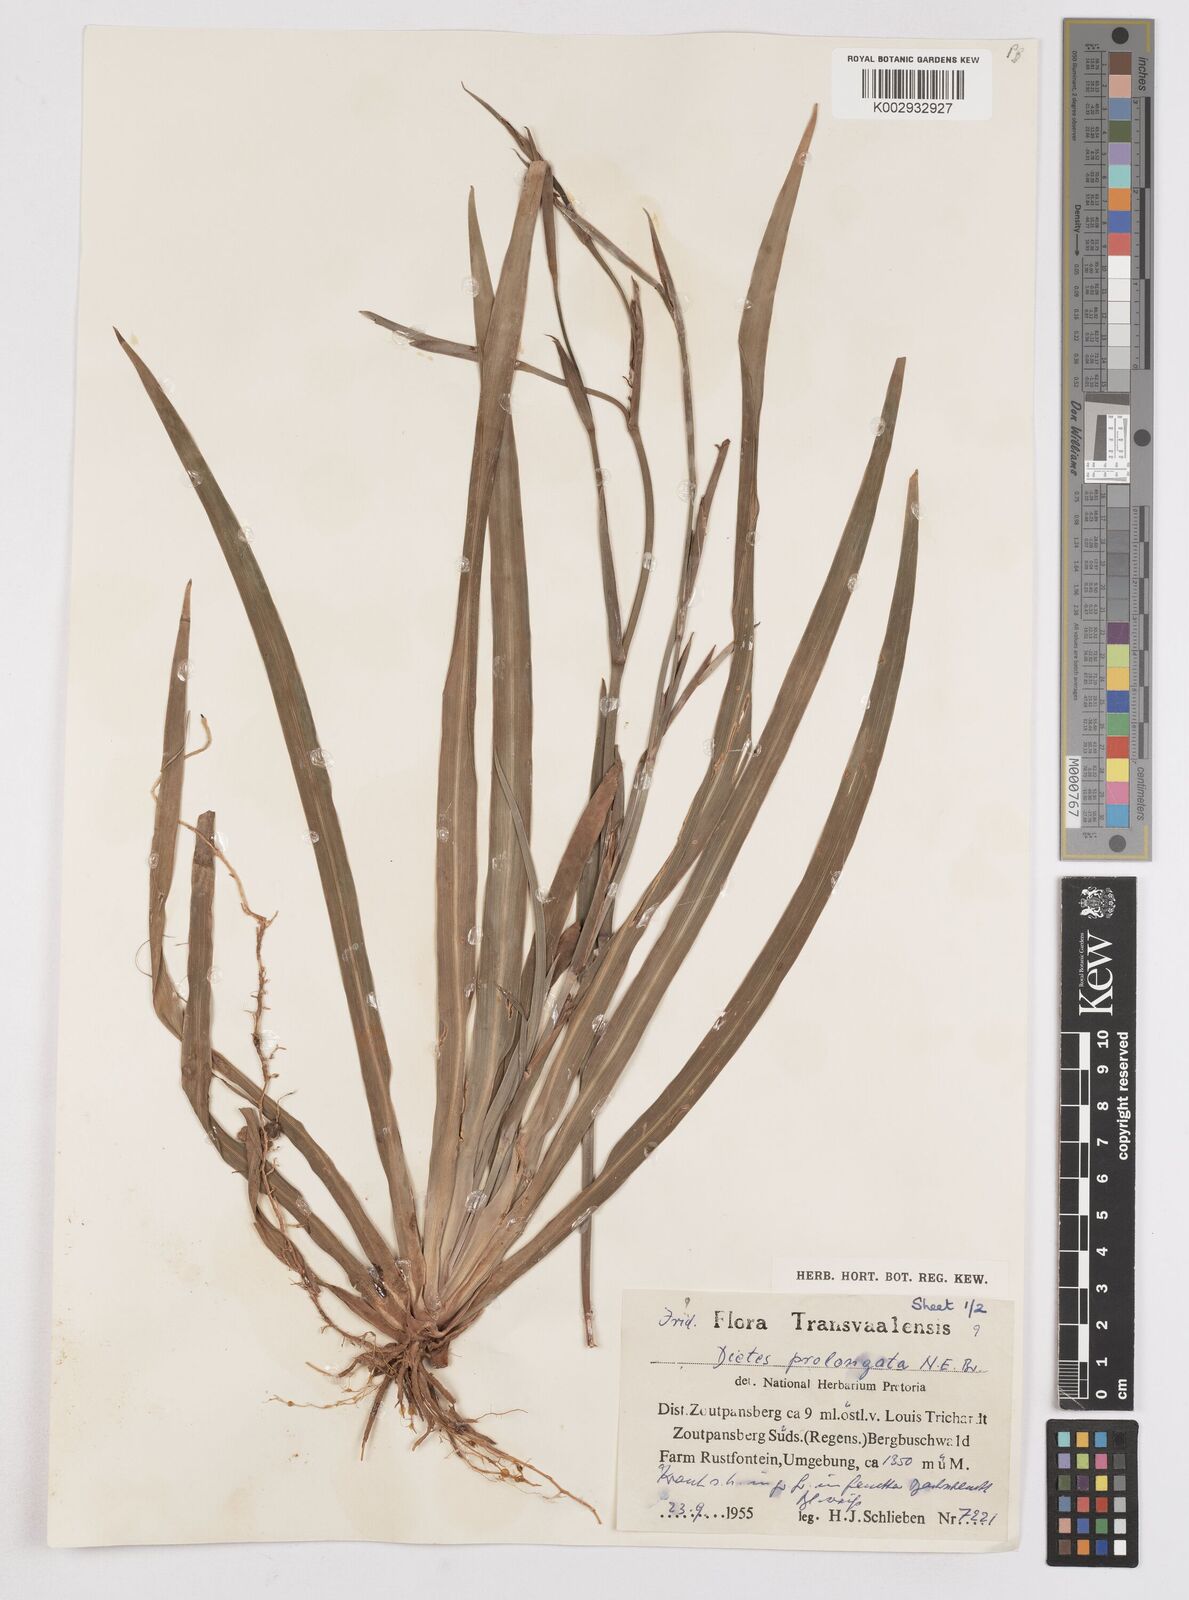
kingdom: Plantae
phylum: Tracheophyta
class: Liliopsida
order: Asparagales
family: Iridaceae
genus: Dietes
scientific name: Dietes iridioides
